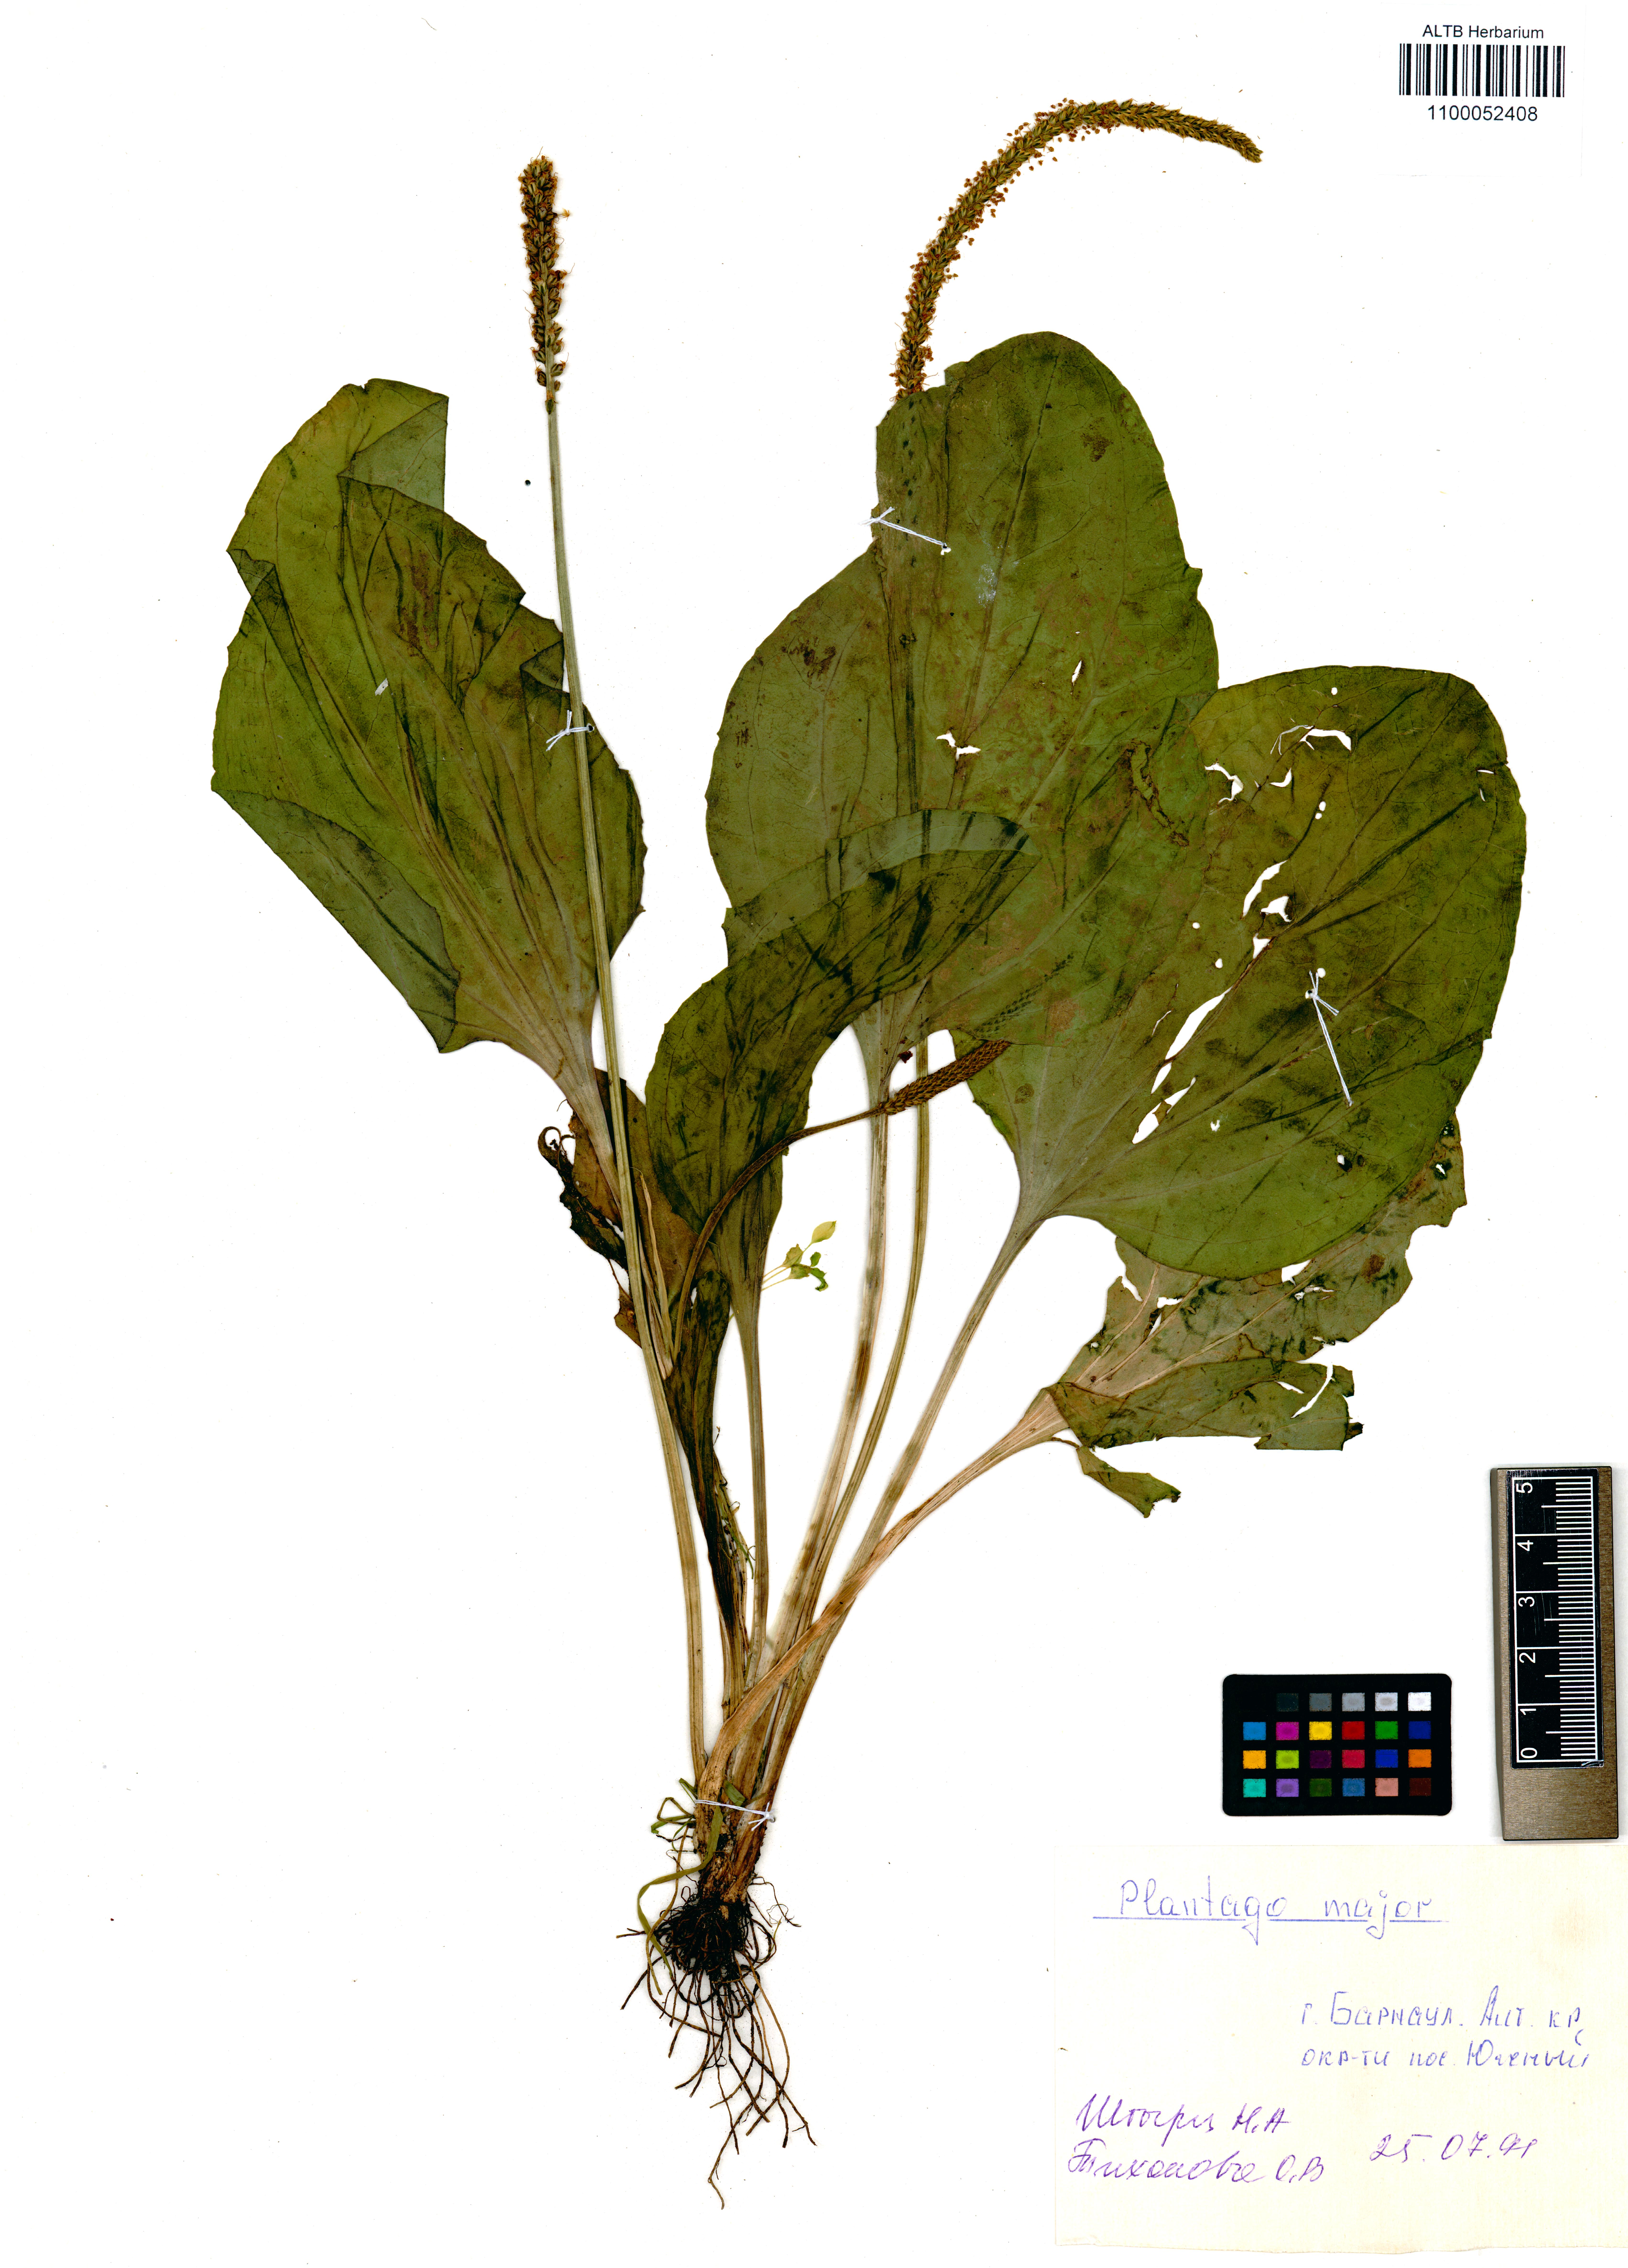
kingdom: Plantae
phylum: Tracheophyta
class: Magnoliopsida
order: Lamiales
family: Plantaginaceae
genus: Plantago
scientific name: Plantago major
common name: Common plantain
